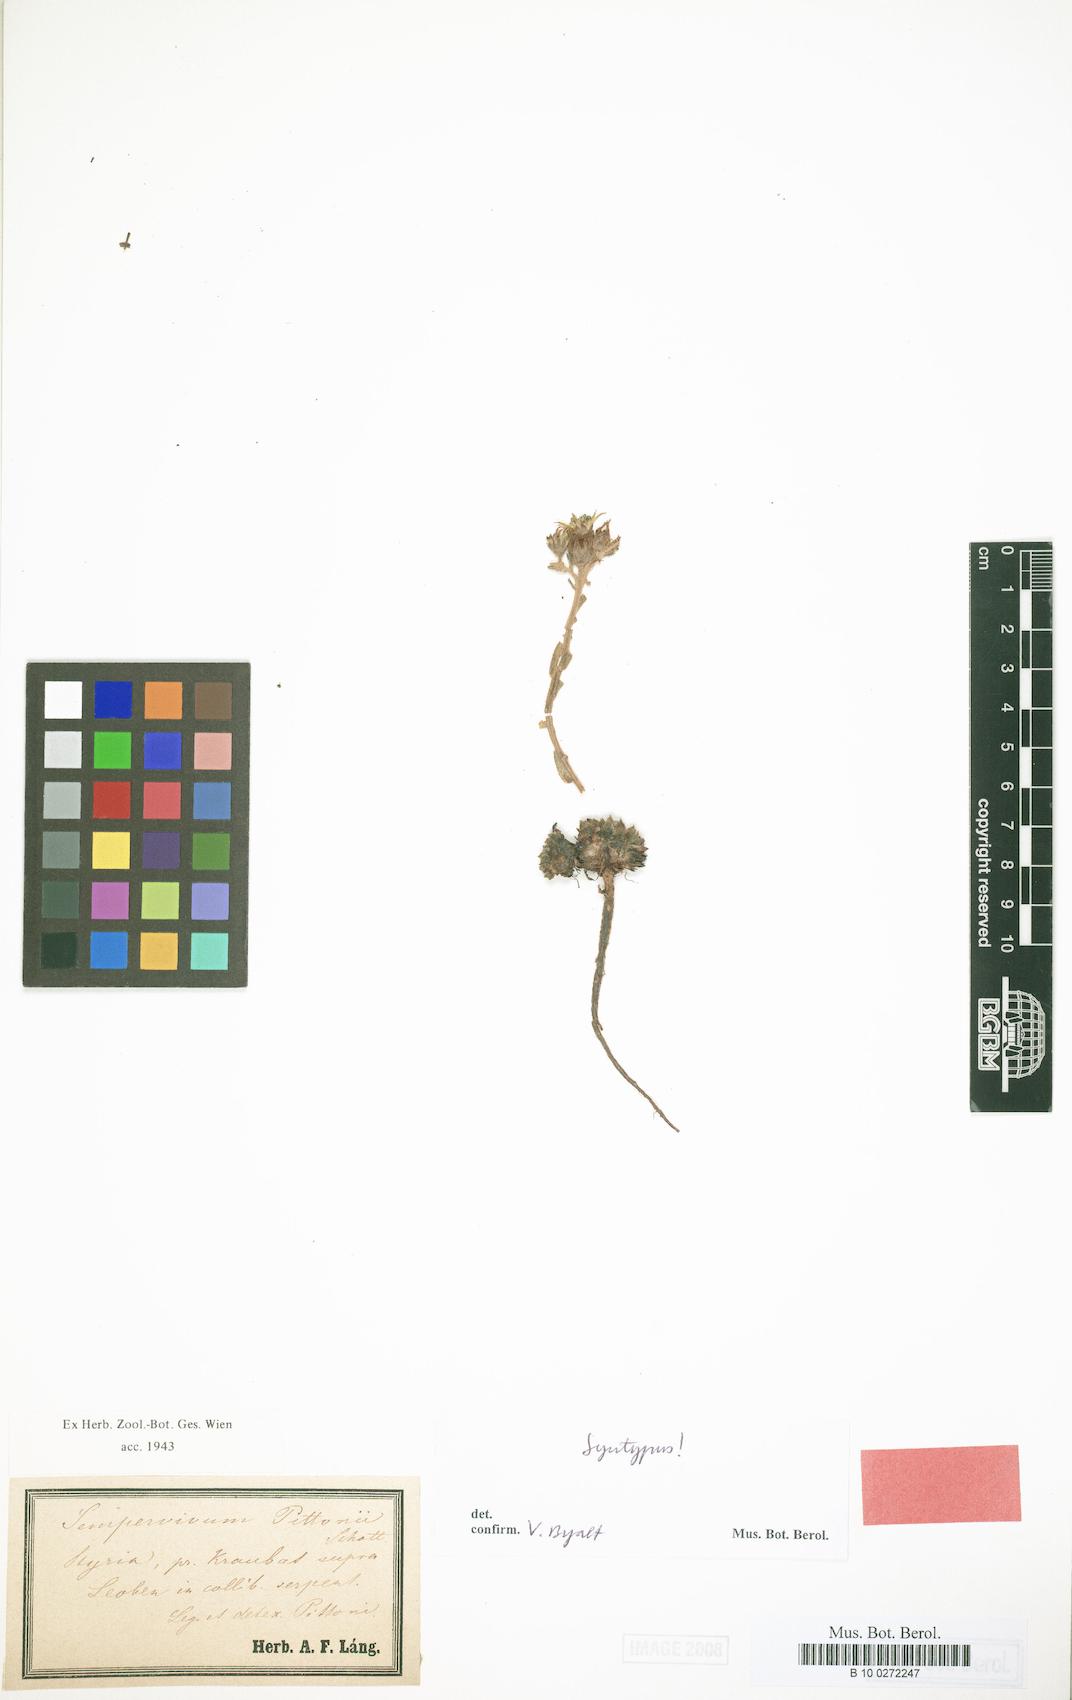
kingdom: Plantae
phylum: Tracheophyta
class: Magnoliopsida
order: Saxifragales
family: Crassulaceae
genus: Sempervivum
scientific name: Sempervivum pittonii
